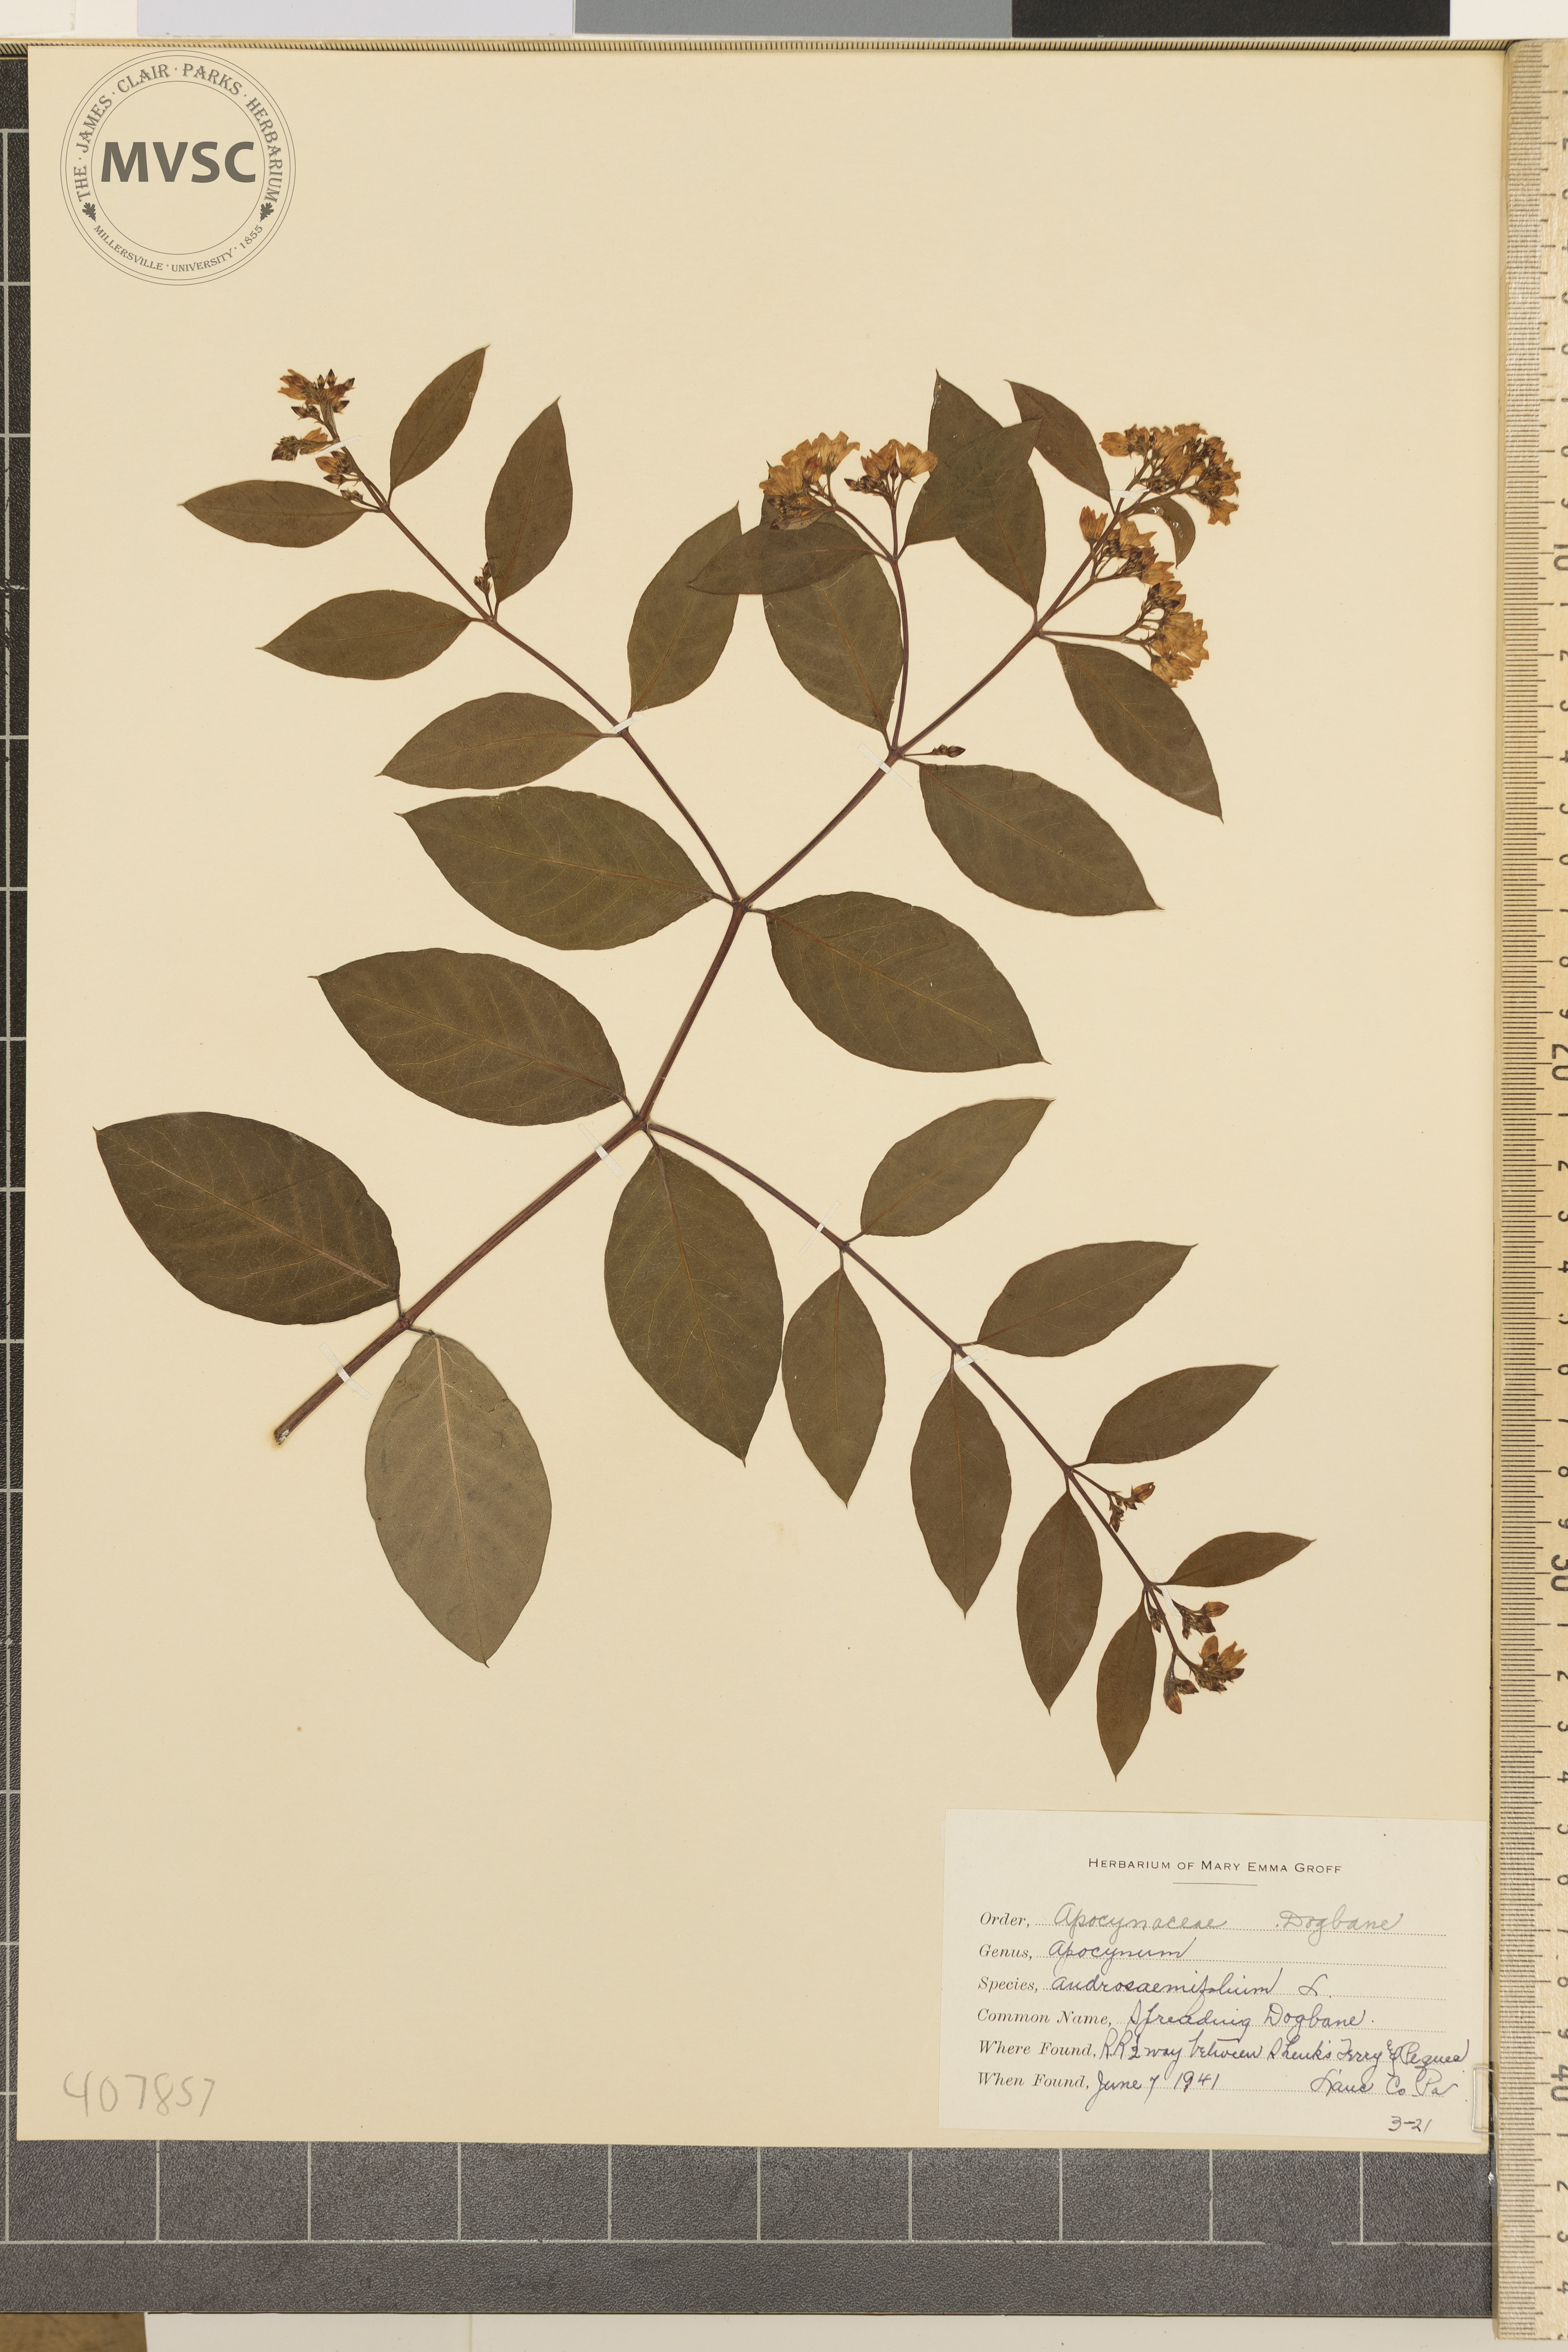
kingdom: Plantae
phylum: Tracheophyta
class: Magnoliopsida
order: Gentianales
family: Apocynaceae
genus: Apocynum
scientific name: Apocynum androsaemifolium
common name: Spreading Dogbane
